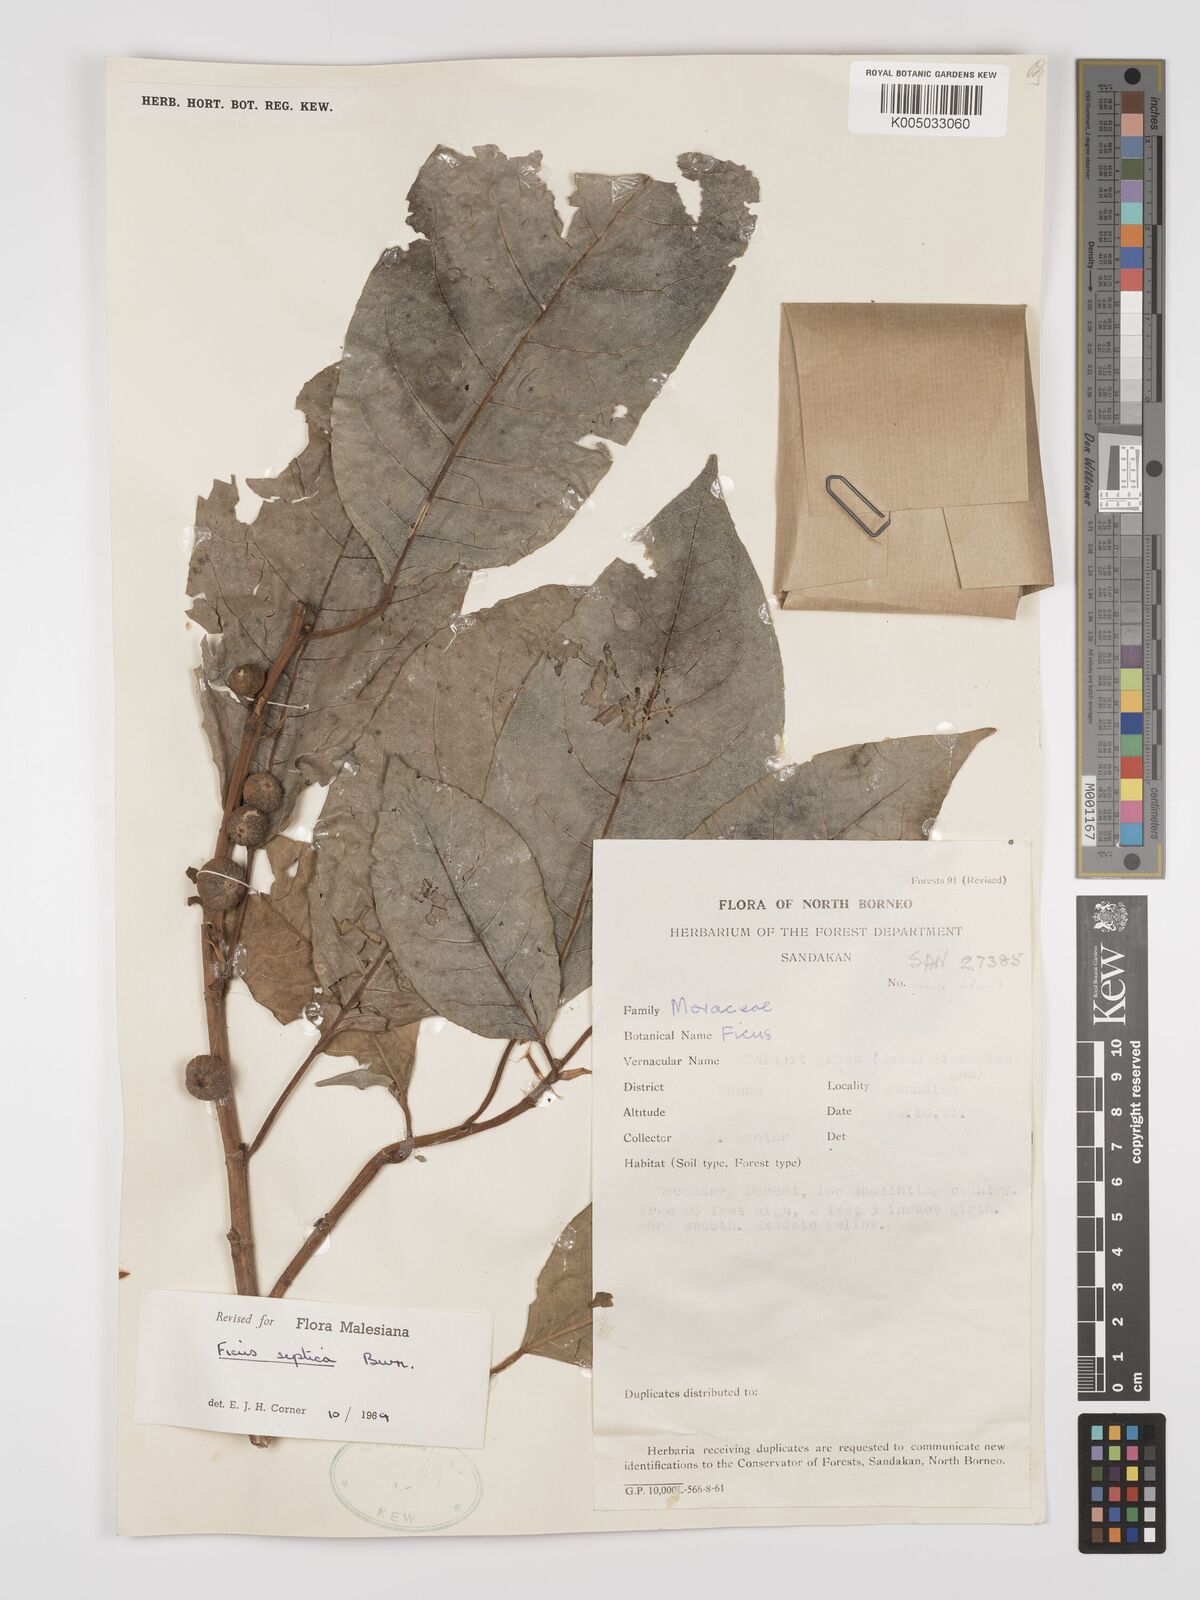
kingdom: Plantae
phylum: Tracheophyta
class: Magnoliopsida
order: Rosales
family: Moraceae
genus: Ficus
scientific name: Ficus septica
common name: Septic fig
